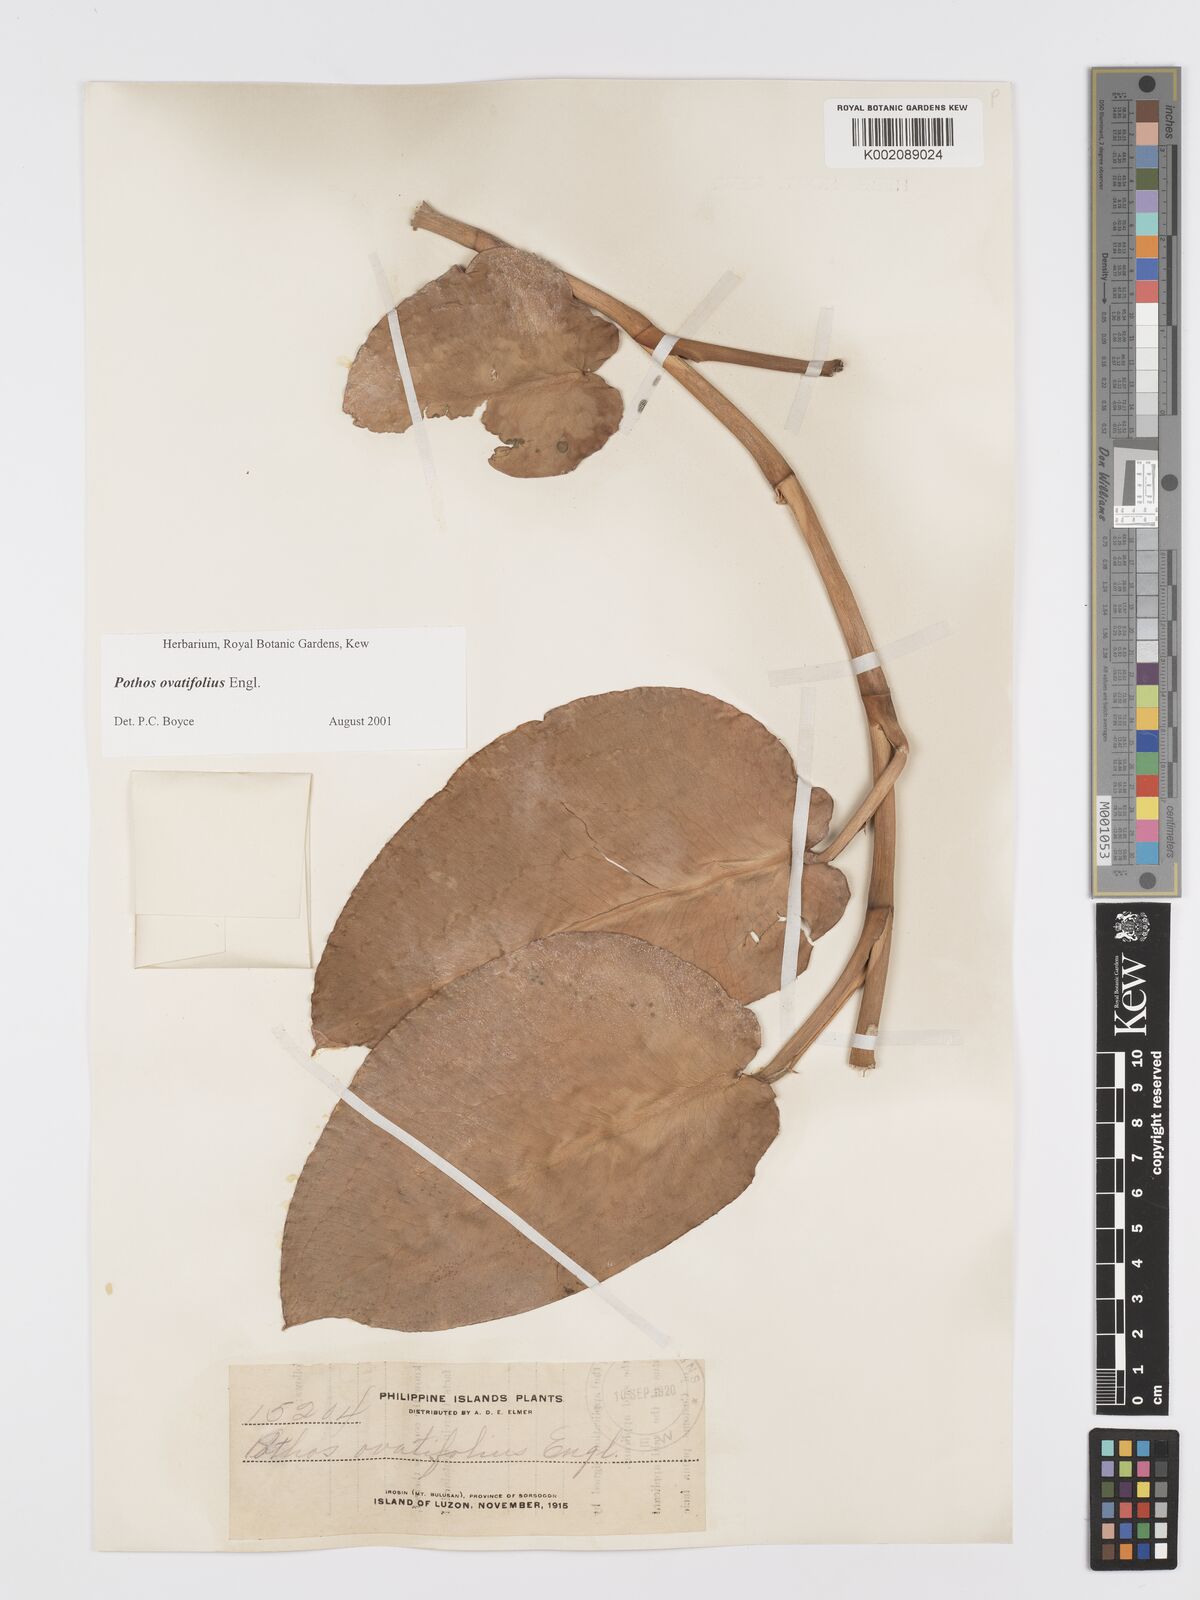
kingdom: Plantae
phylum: Tracheophyta
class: Liliopsida
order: Alismatales
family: Araceae
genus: Pothos
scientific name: Pothos ovatifolius
